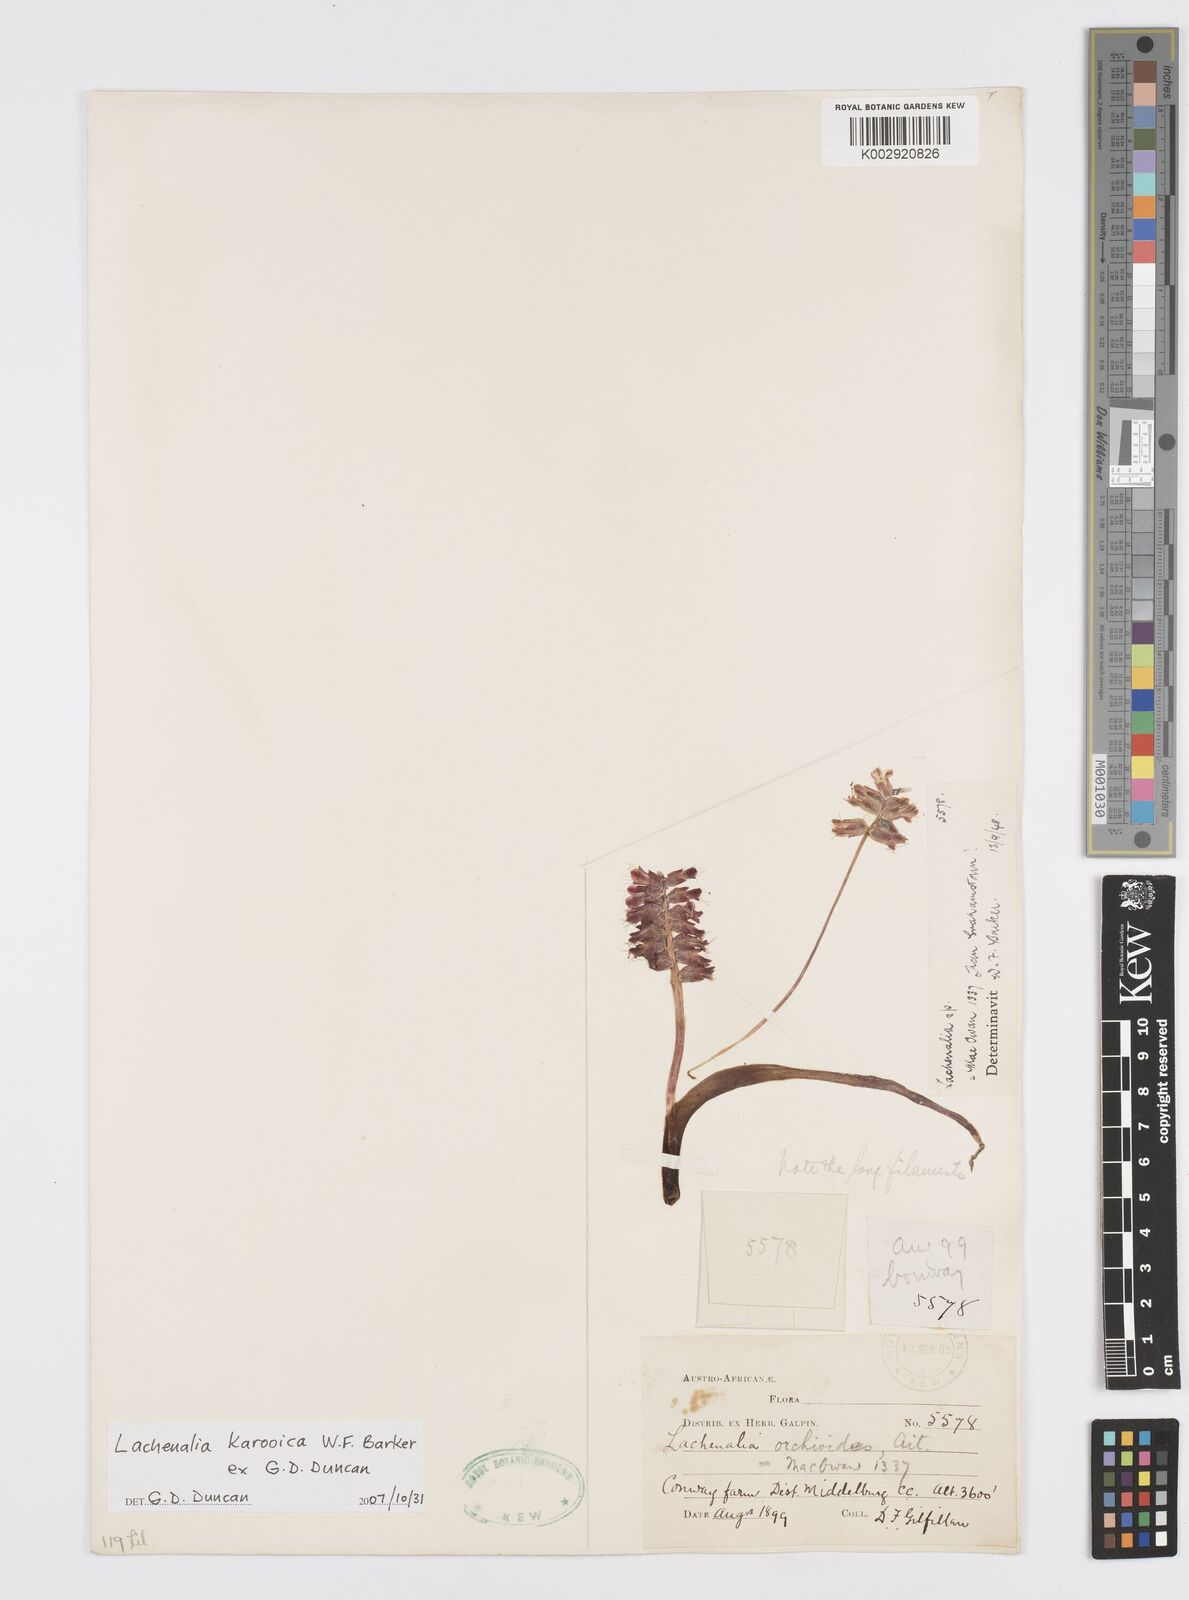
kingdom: Plantae
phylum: Tracheophyta
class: Liliopsida
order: Asparagales
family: Asparagaceae
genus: Lachenalia
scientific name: Lachenalia karooica
